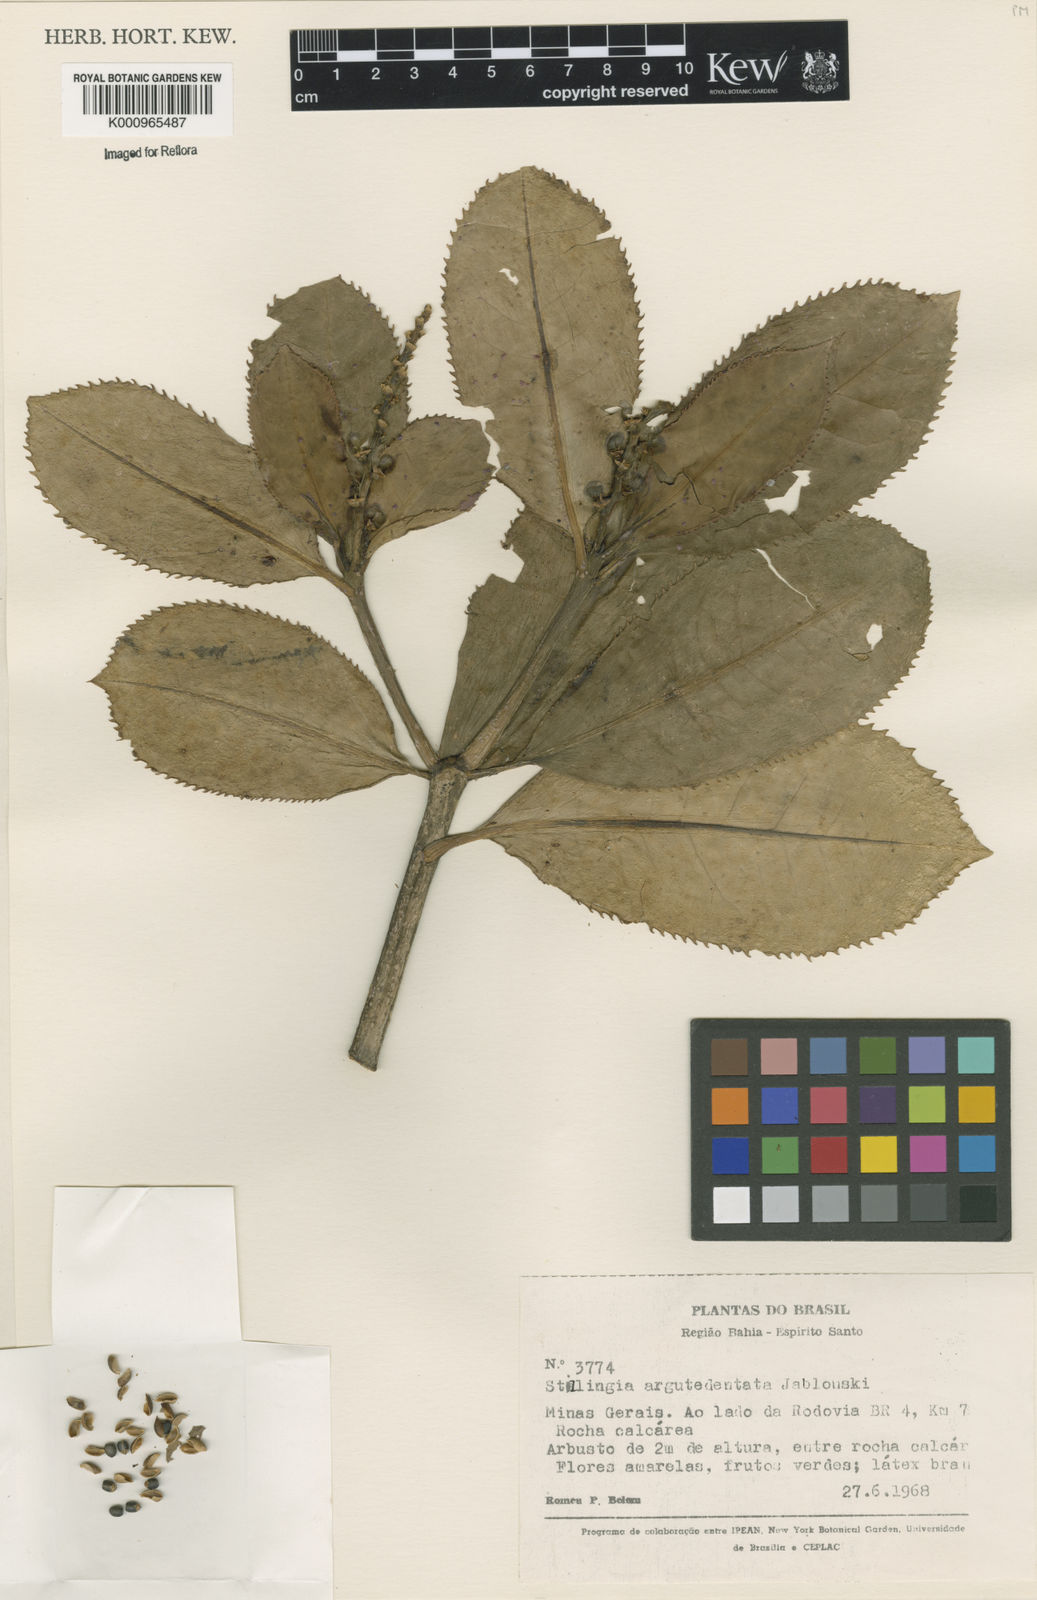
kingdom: Plantae
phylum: Tracheophyta
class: Magnoliopsida
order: Malpighiales
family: Euphorbiaceae
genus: Stillingia
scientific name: Stillingia argutedentata
